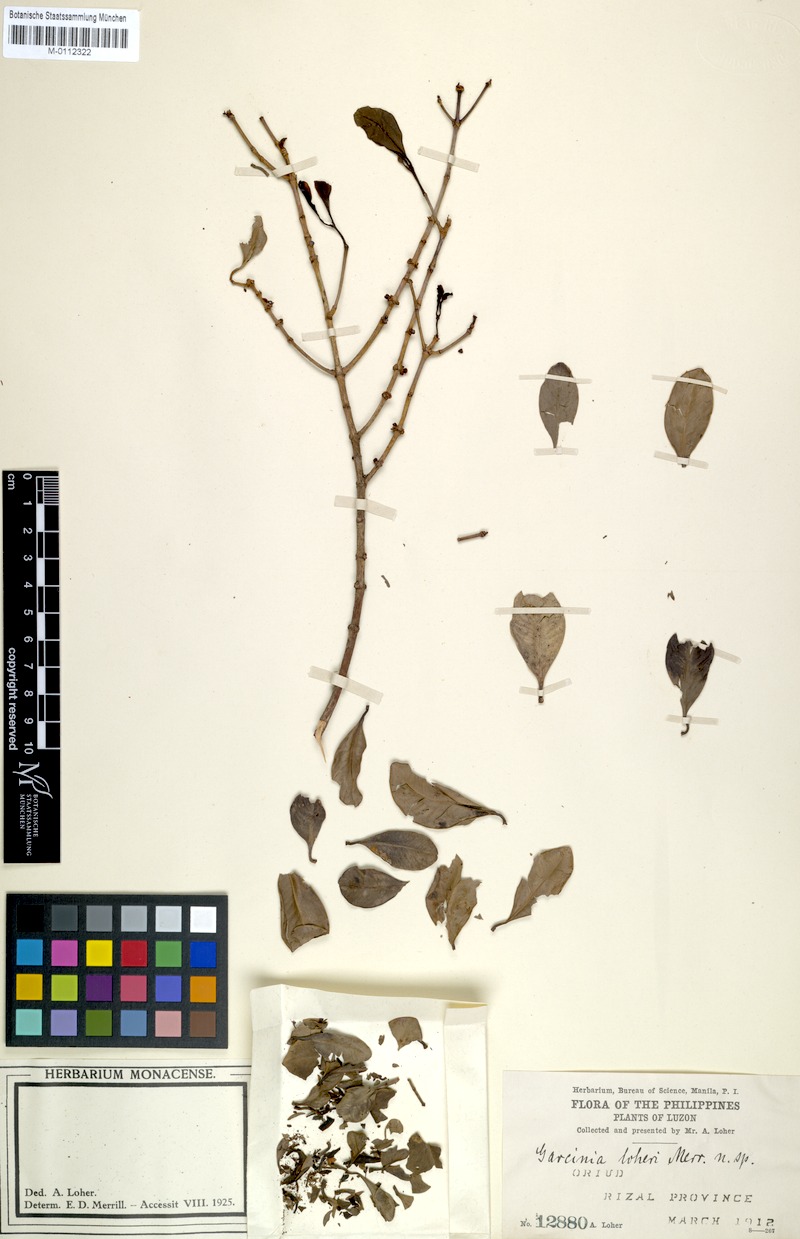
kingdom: Plantae
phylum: Tracheophyta
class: Magnoliopsida
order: Malpighiales
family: Clusiaceae
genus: Garcinia
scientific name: Garcinia loheri
